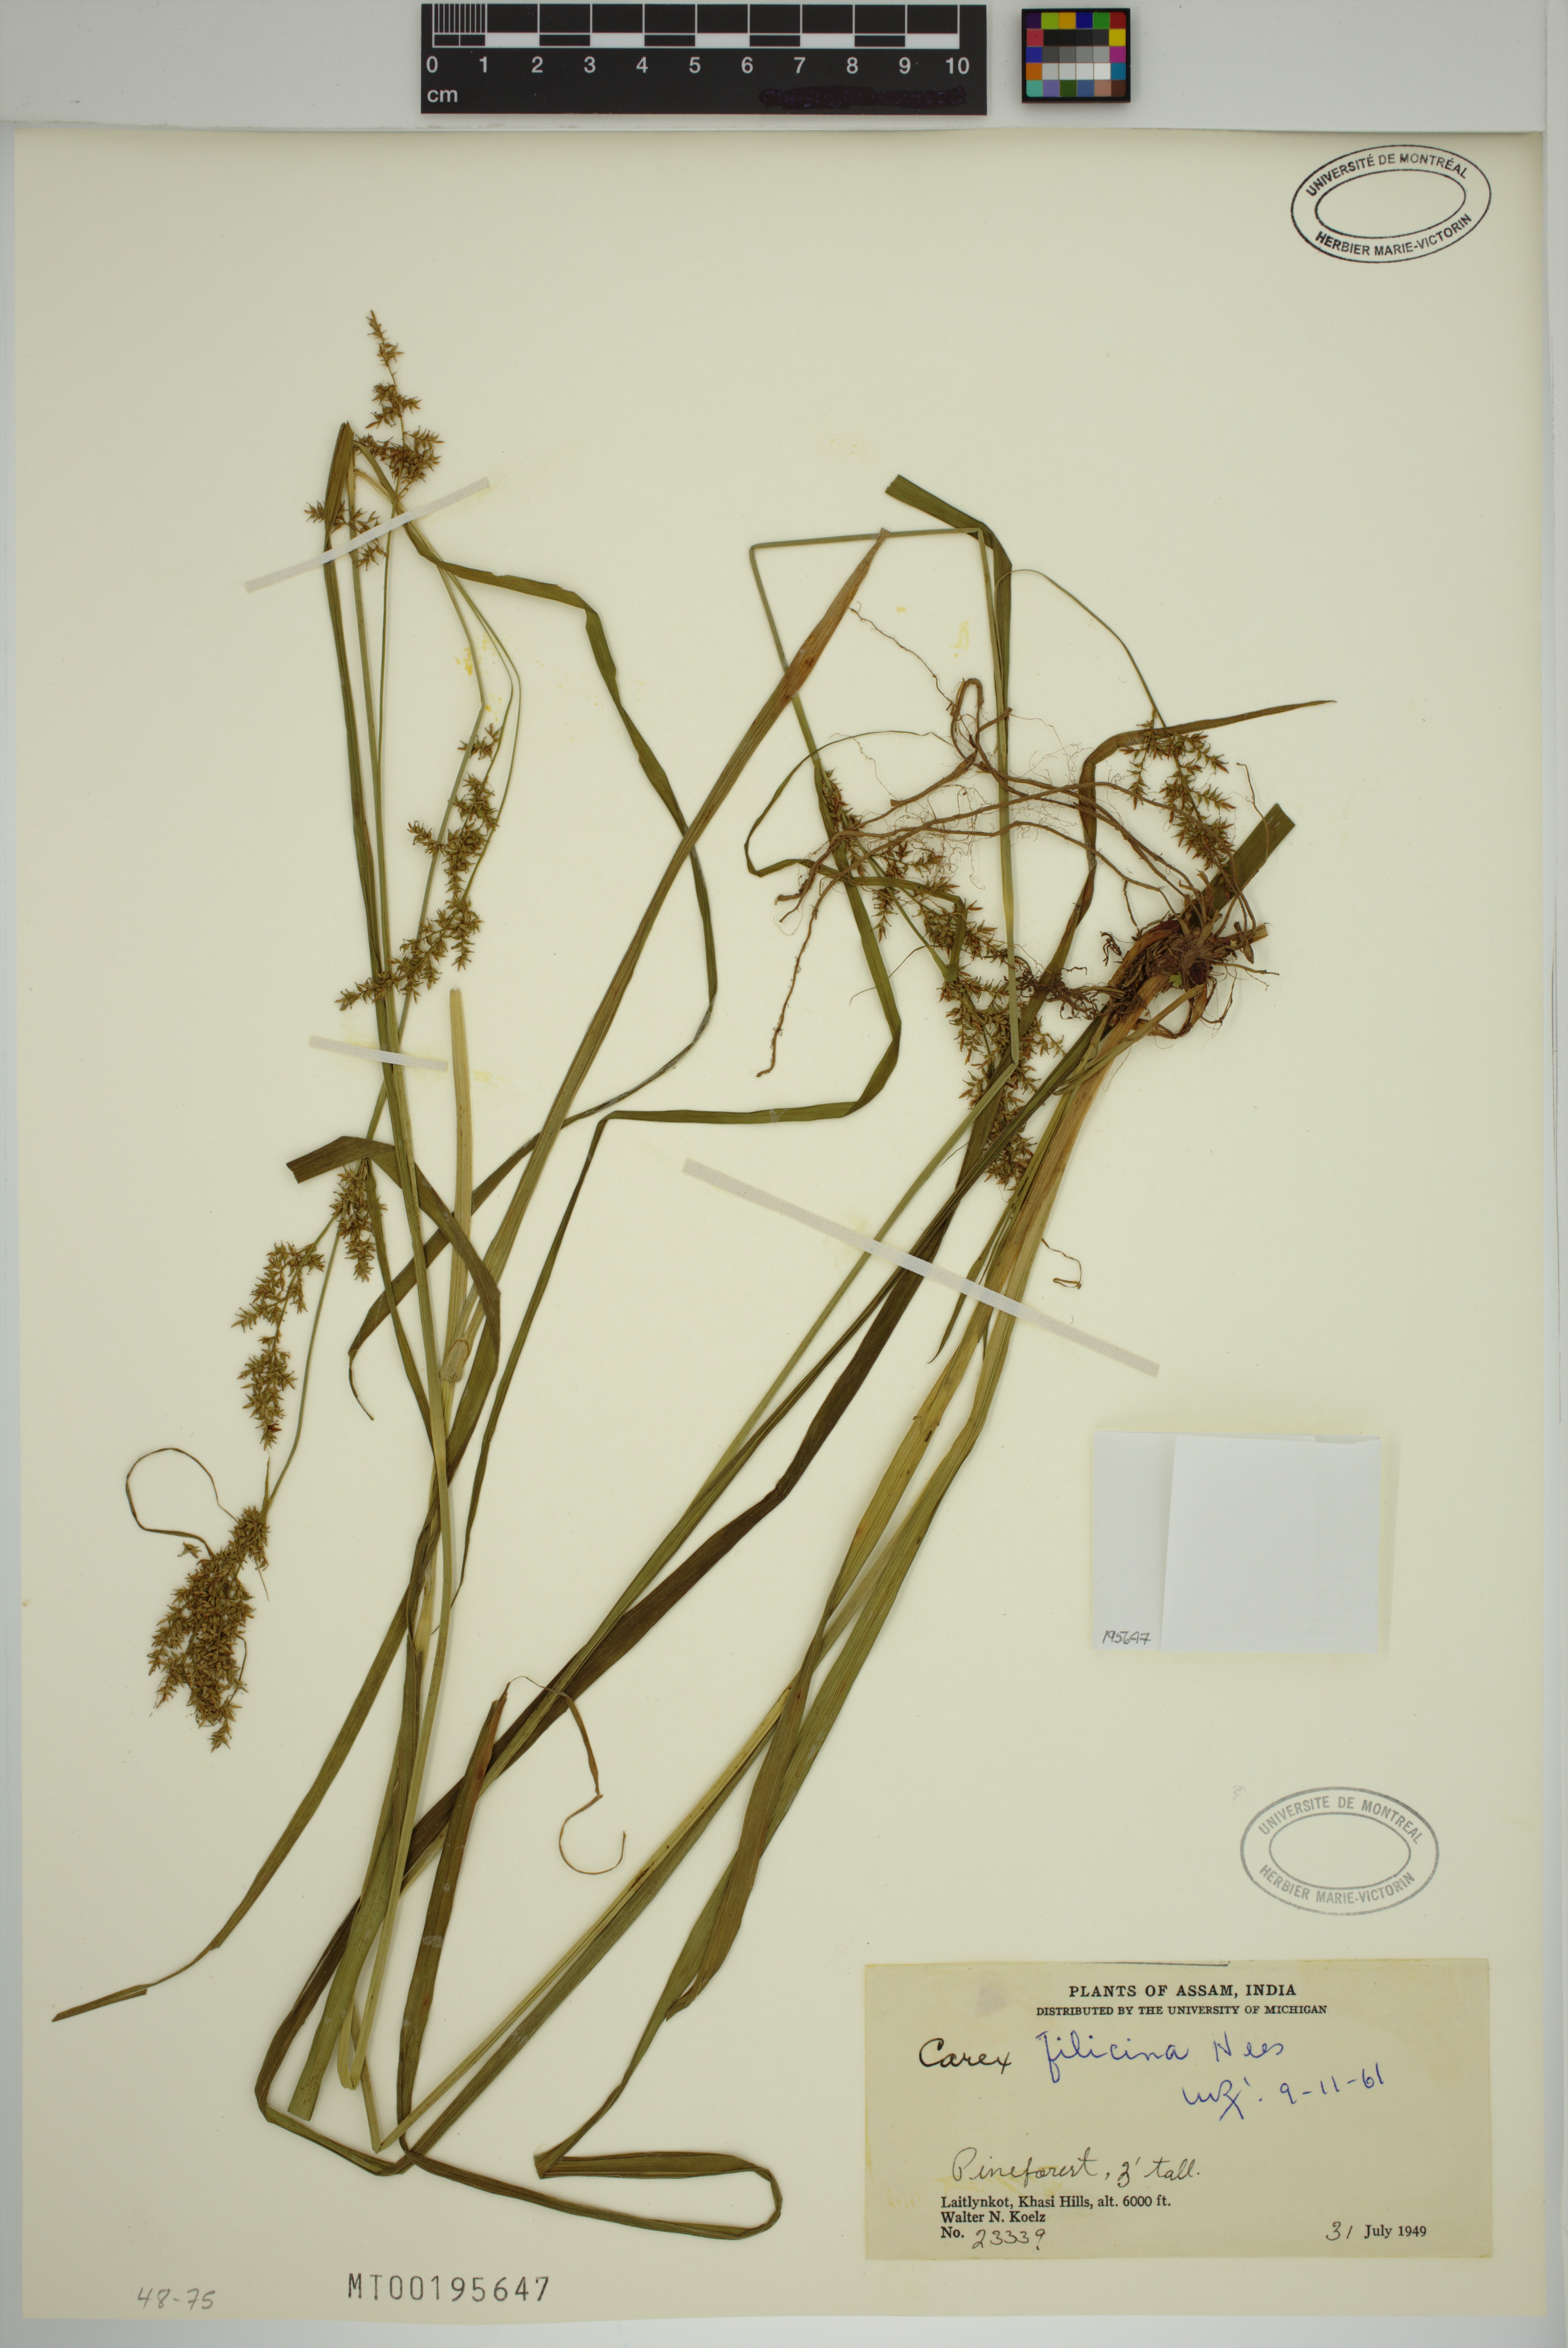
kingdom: Plantae
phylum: Tracheophyta
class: Liliopsida
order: Poales
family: Cyperaceae
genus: Carex
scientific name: Carex filicina
